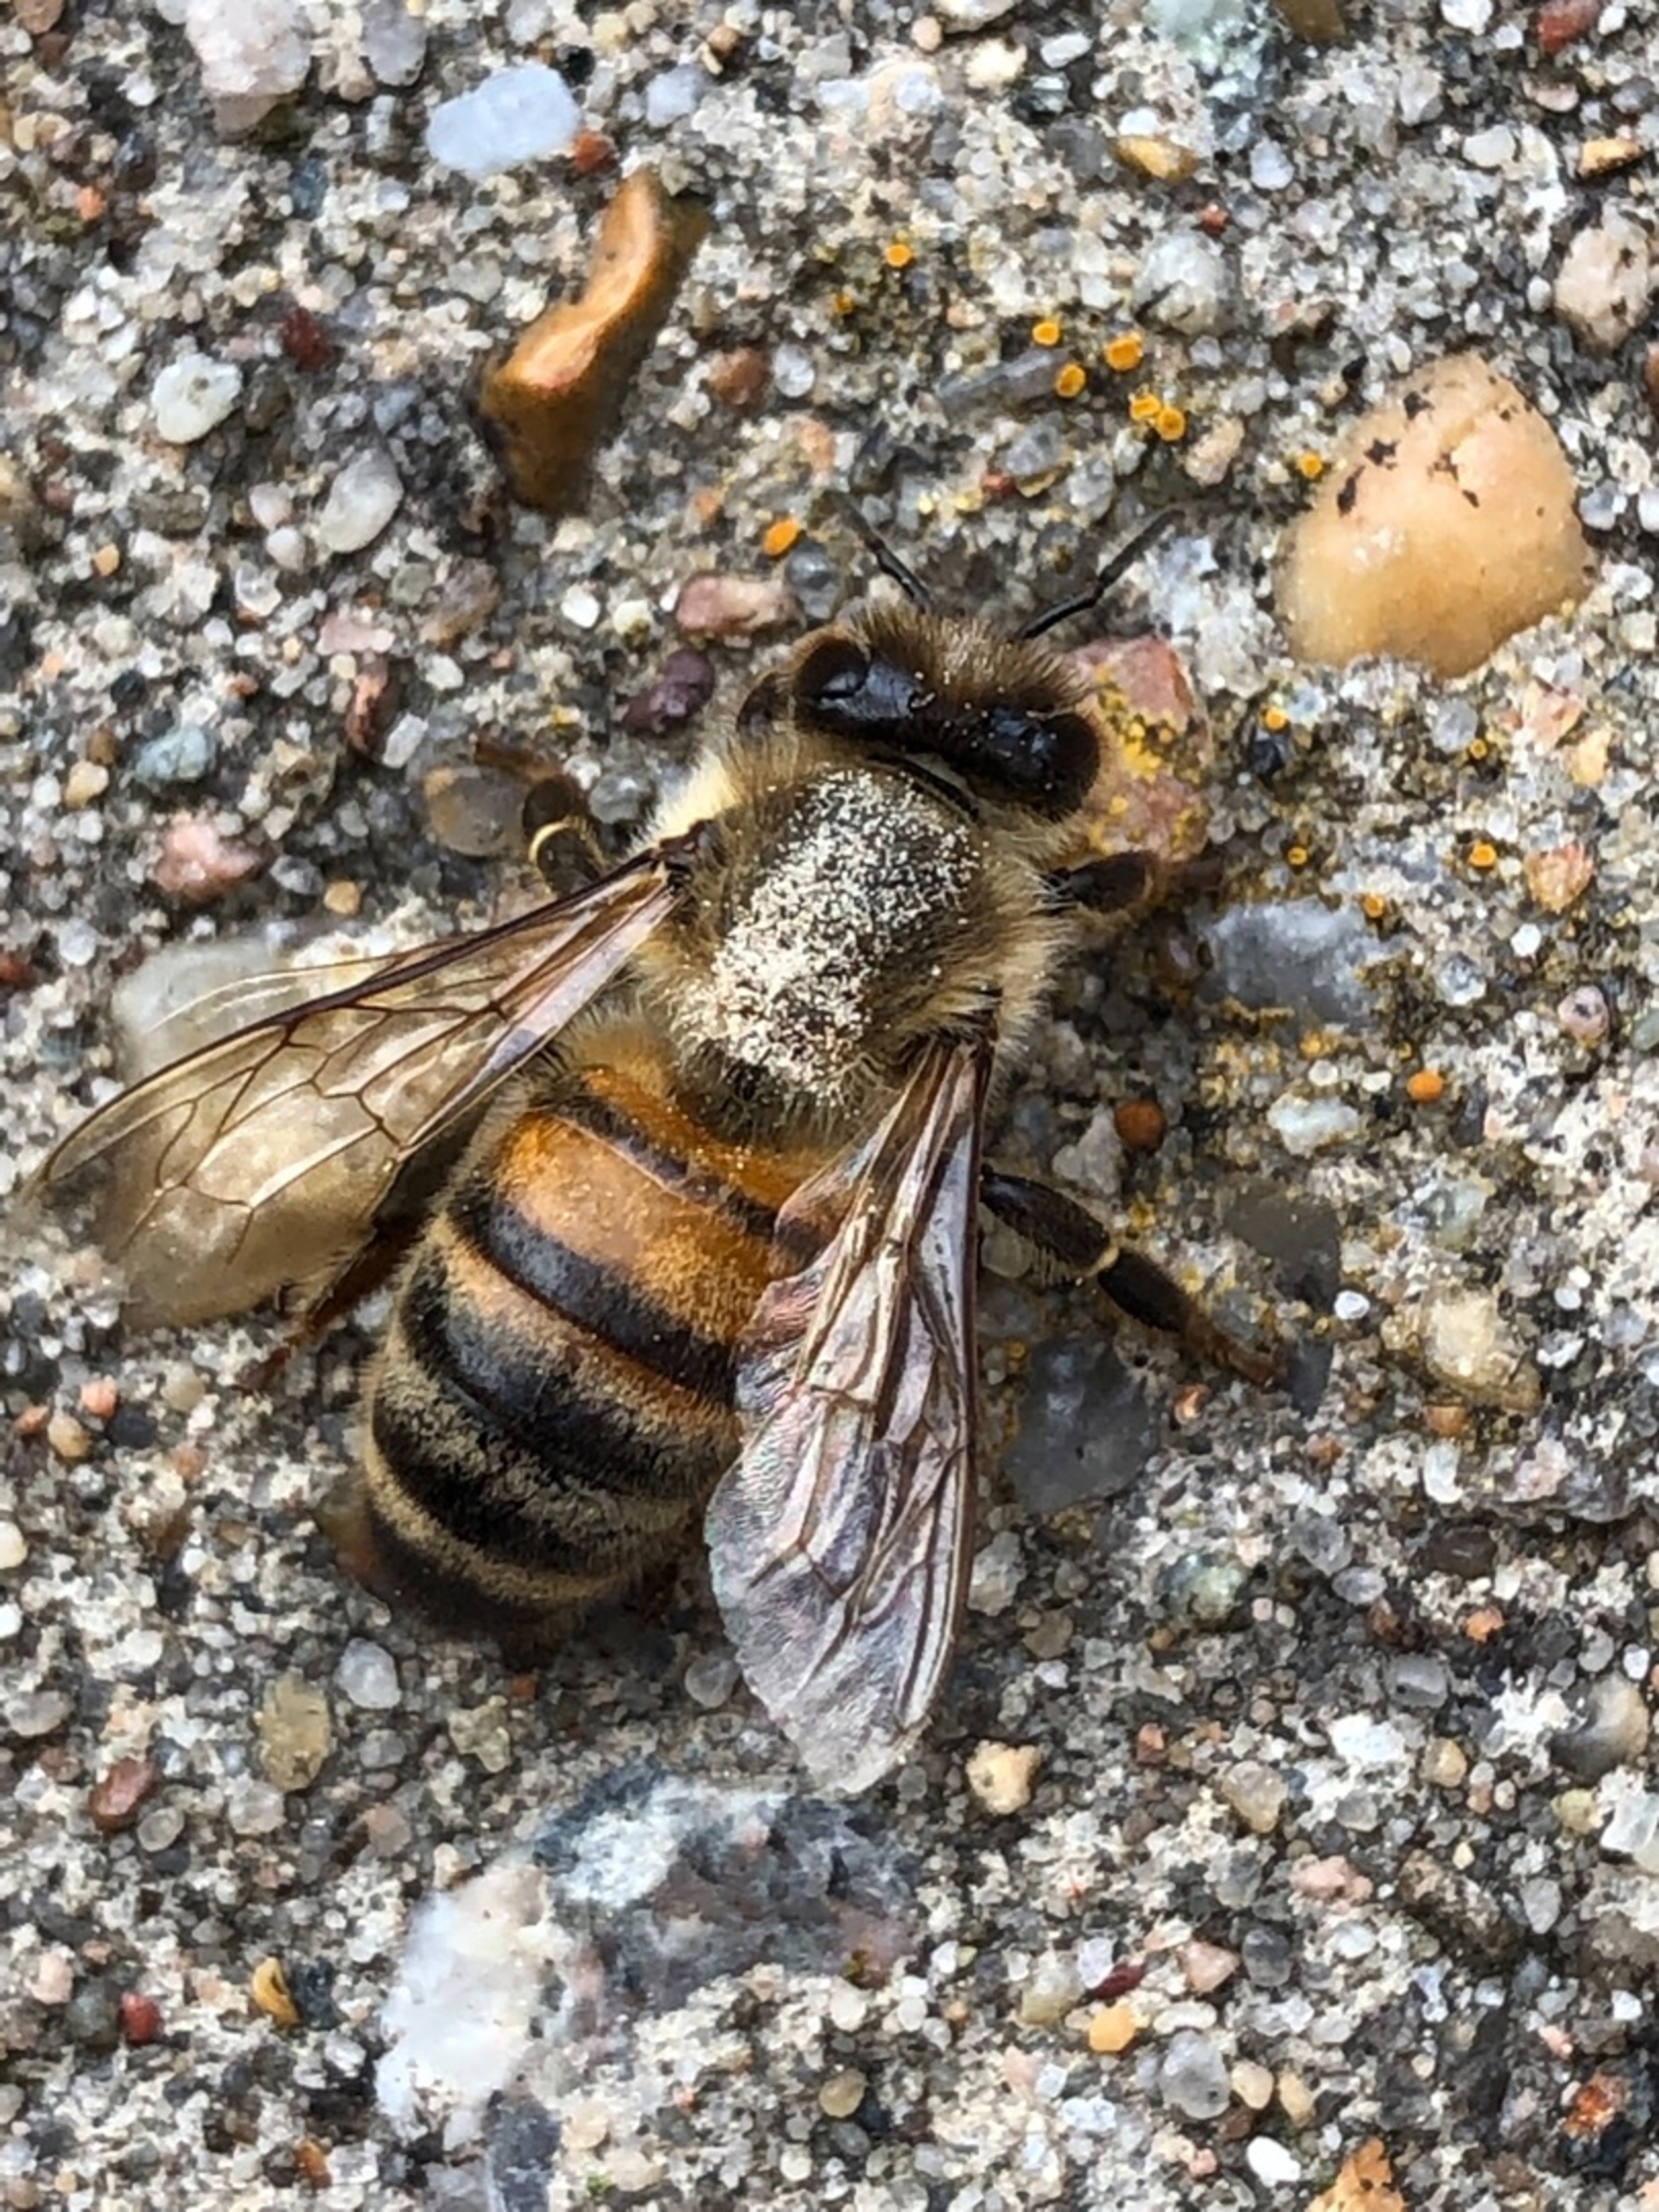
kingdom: Animalia
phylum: Arthropoda
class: Insecta
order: Hymenoptera
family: Apidae
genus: Apis
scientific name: Apis mellifera
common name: Honningbi
